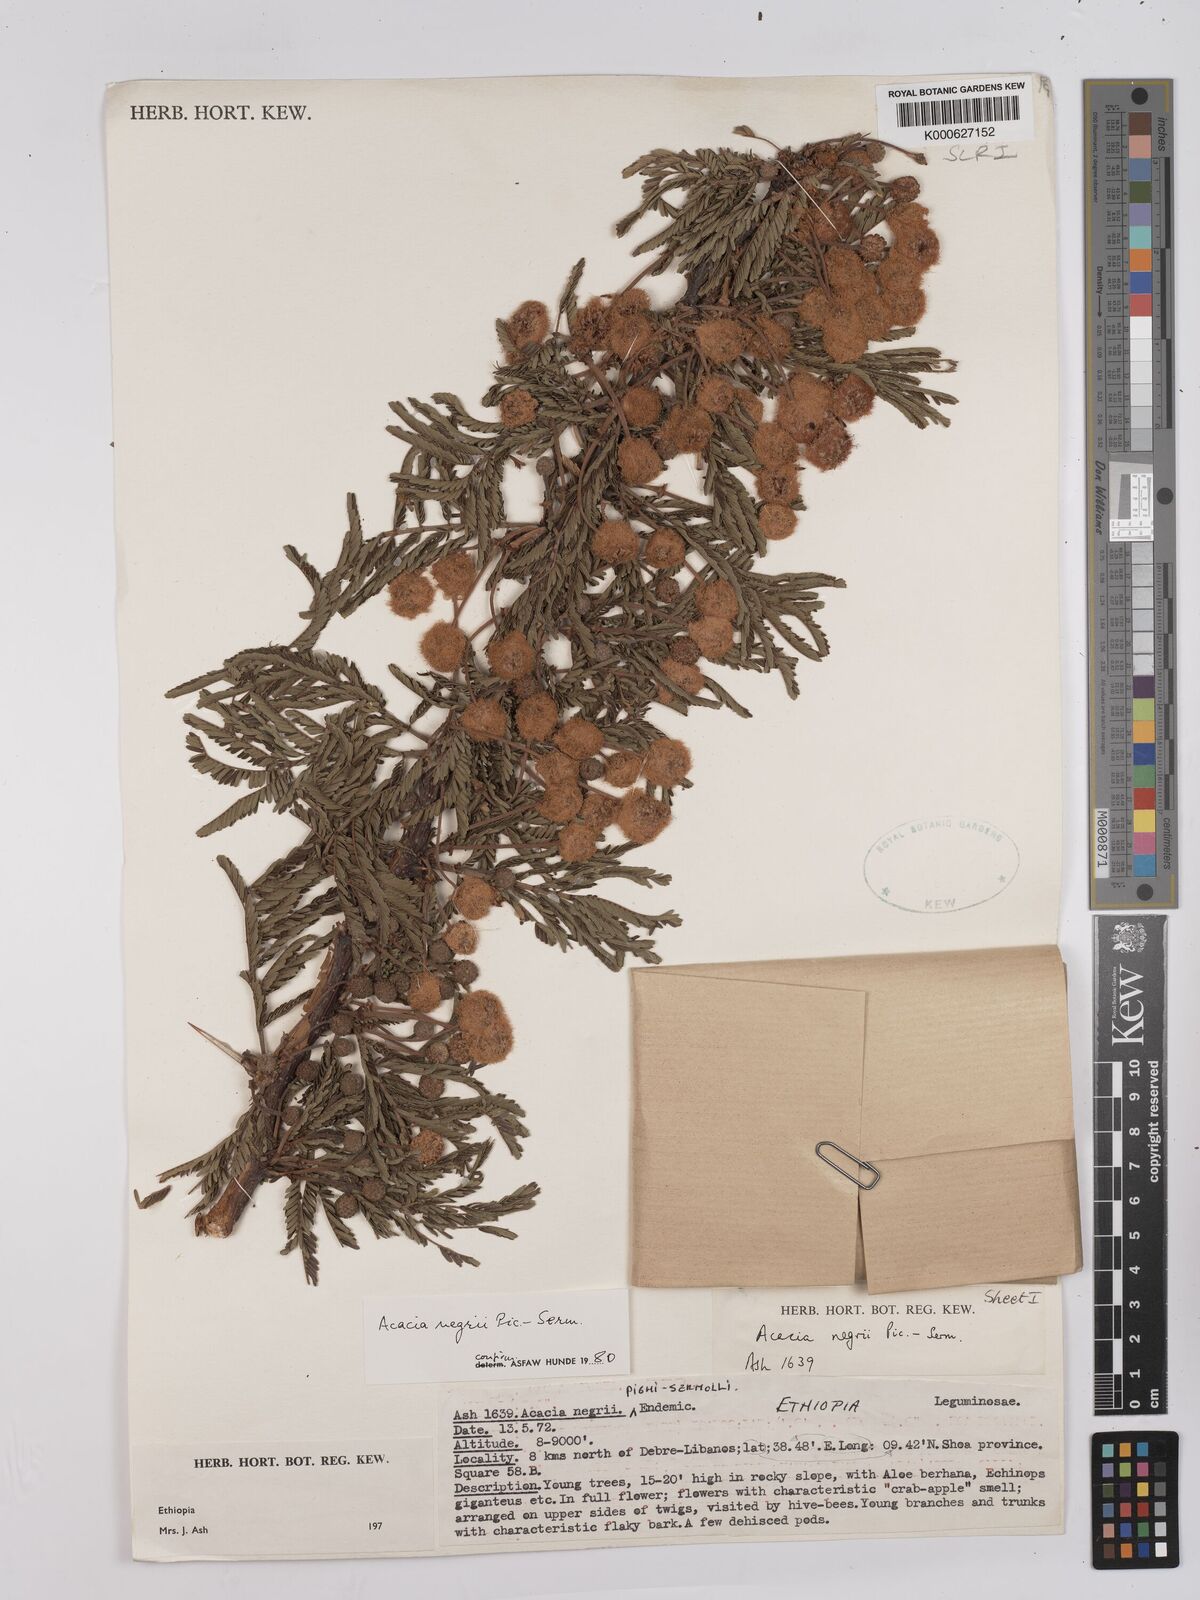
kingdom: Plantae
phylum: Tracheophyta
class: Magnoliopsida
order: Fabales
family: Fabaceae
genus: Vachellia
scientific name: Vachellia negrii
